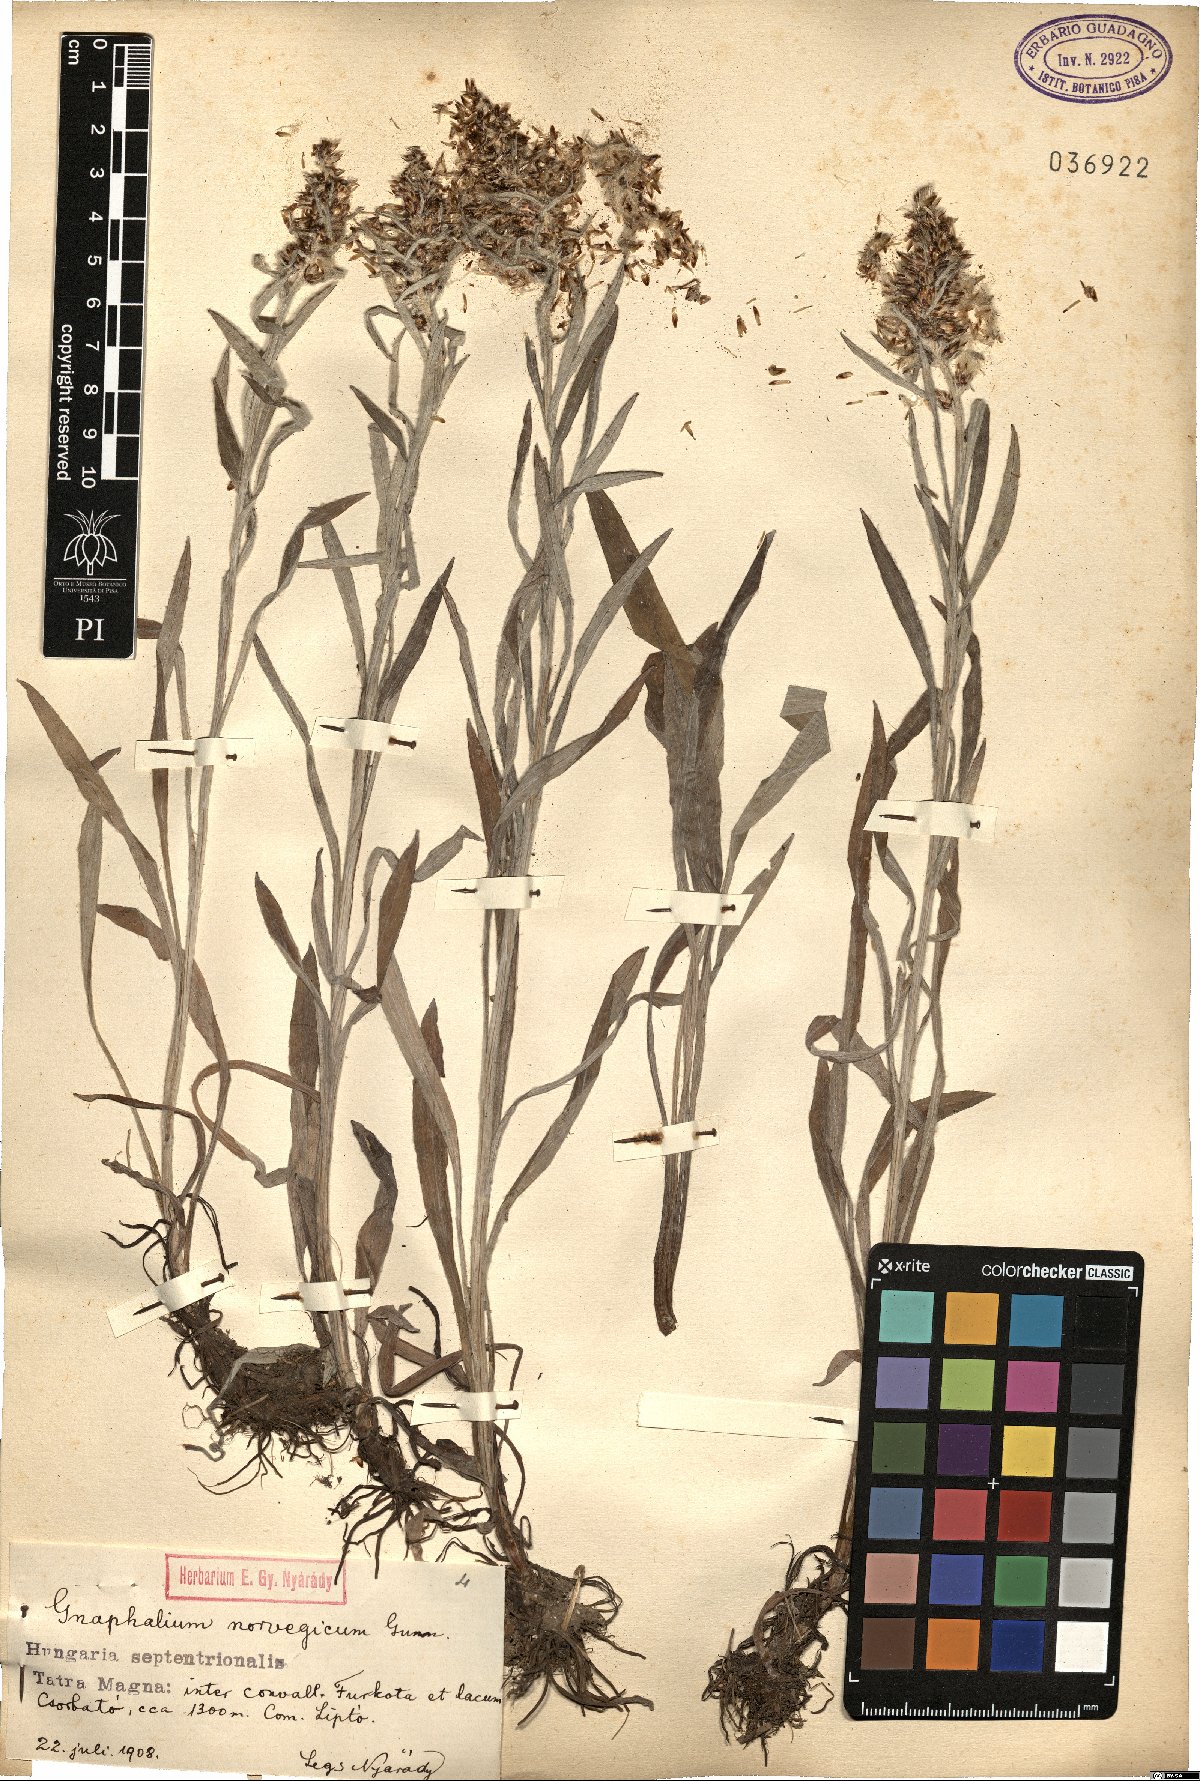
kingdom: Plantae
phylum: Tracheophyta
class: Magnoliopsida
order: Asterales
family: Asteraceae
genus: Omalotheca
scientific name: Omalotheca norvegica
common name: Norwegian arctic-cudweed
